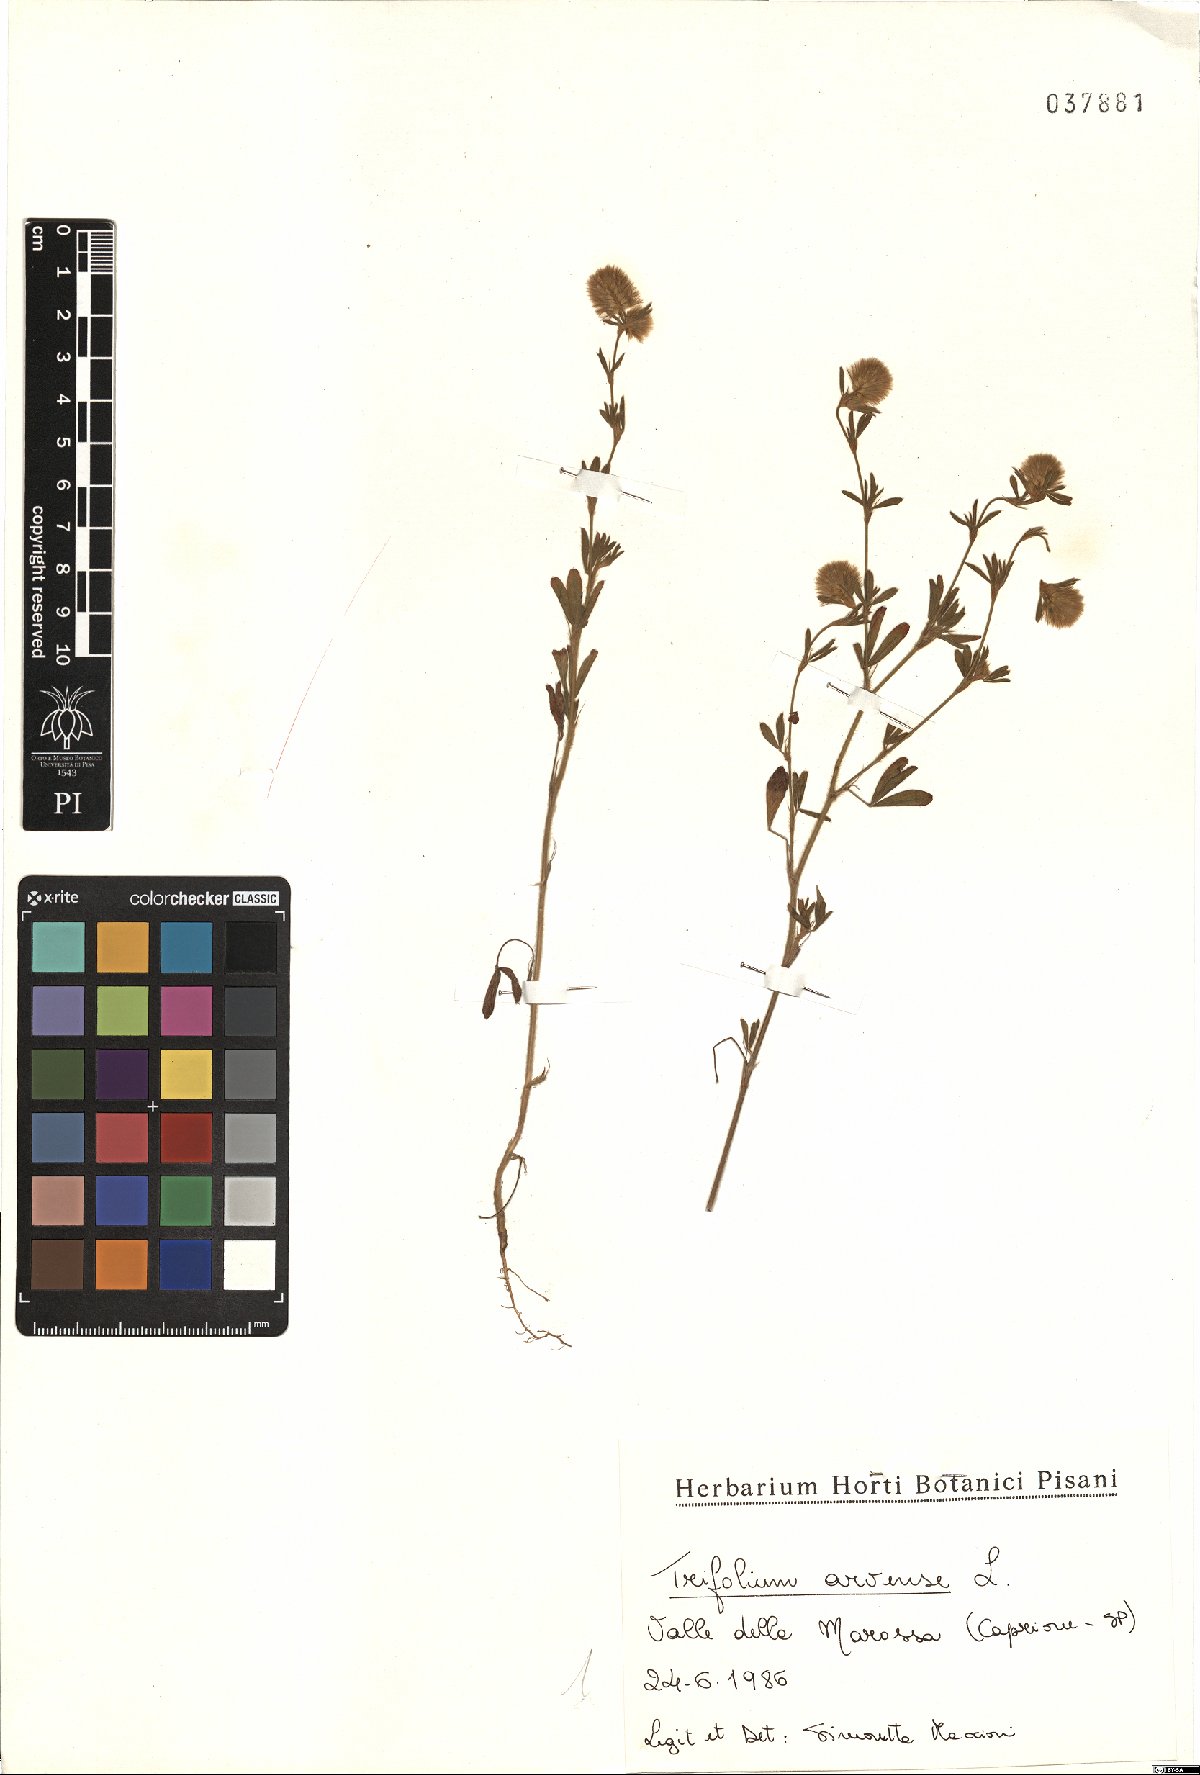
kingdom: Plantae
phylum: Tracheophyta
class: Magnoliopsida
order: Fabales
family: Fabaceae
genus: Trifolium
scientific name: Trifolium arvense
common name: Hare's-foot clover
